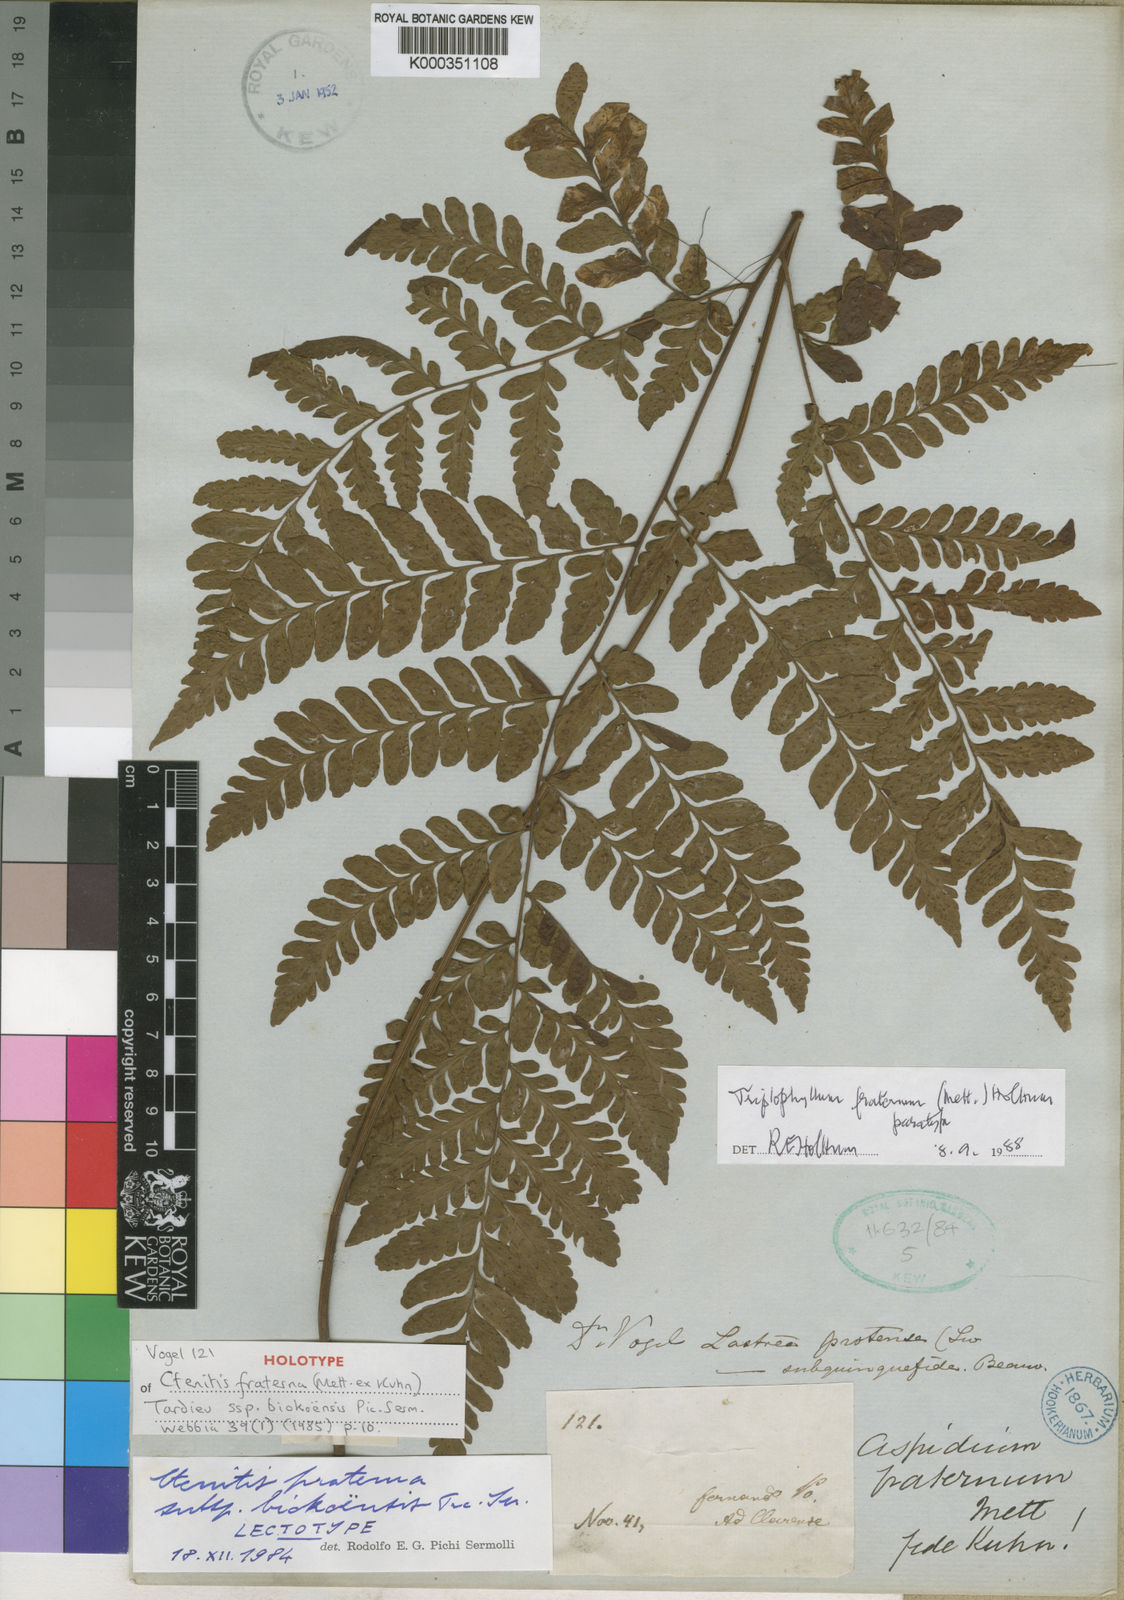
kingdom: Plantae
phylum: Tracheophyta
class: Polypodiopsida
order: Polypodiales
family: Tectariaceae
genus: Triplophyllum
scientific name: Triplophyllum gabonense
